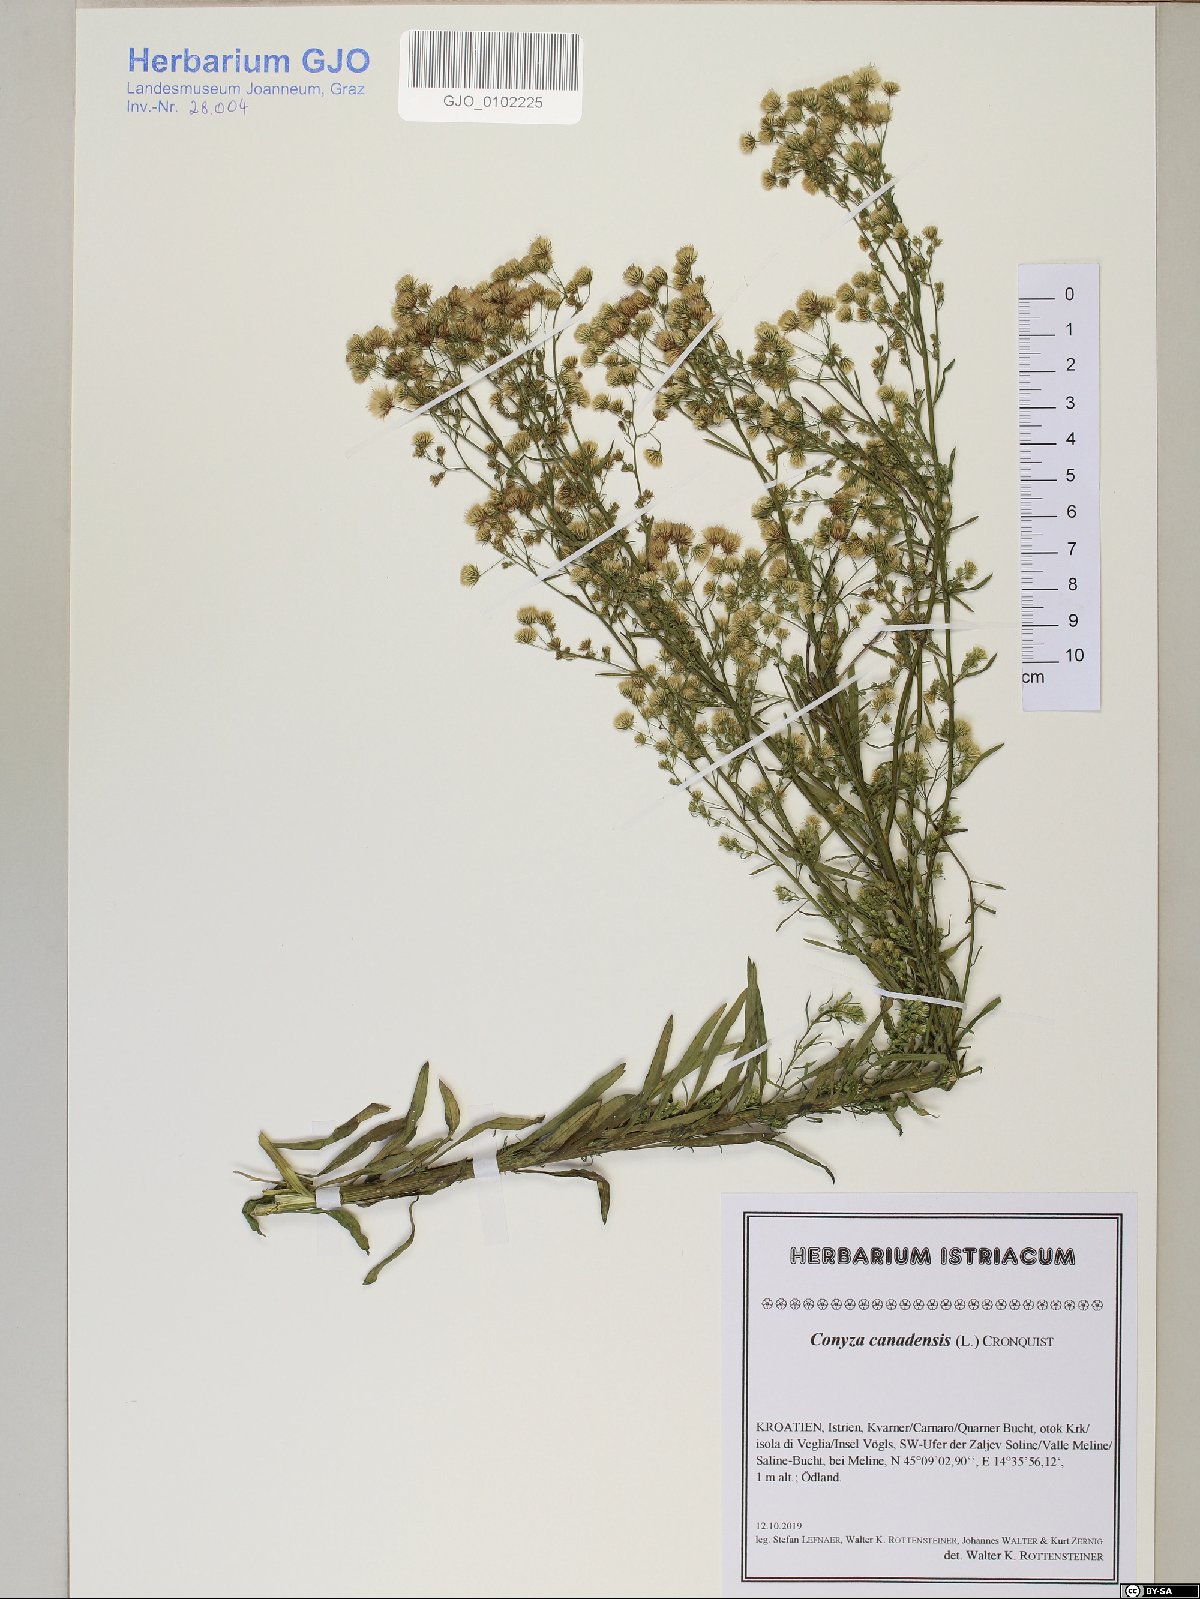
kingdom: Plantae
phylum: Tracheophyta
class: Magnoliopsida
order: Asterales
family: Asteraceae
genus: Erigeron
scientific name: Erigeron canadensis
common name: Canadian fleabane
